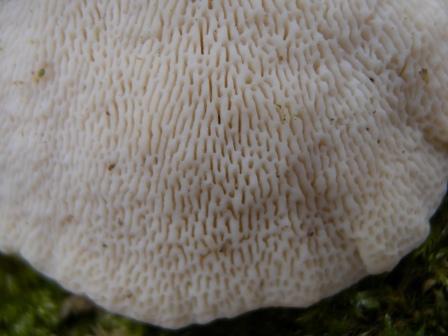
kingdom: Fungi
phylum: Basidiomycota
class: Agaricomycetes
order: Polyporales
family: Polyporaceae
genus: Trametes
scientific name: Trametes gibbosa
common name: puklet læderporesvamp
